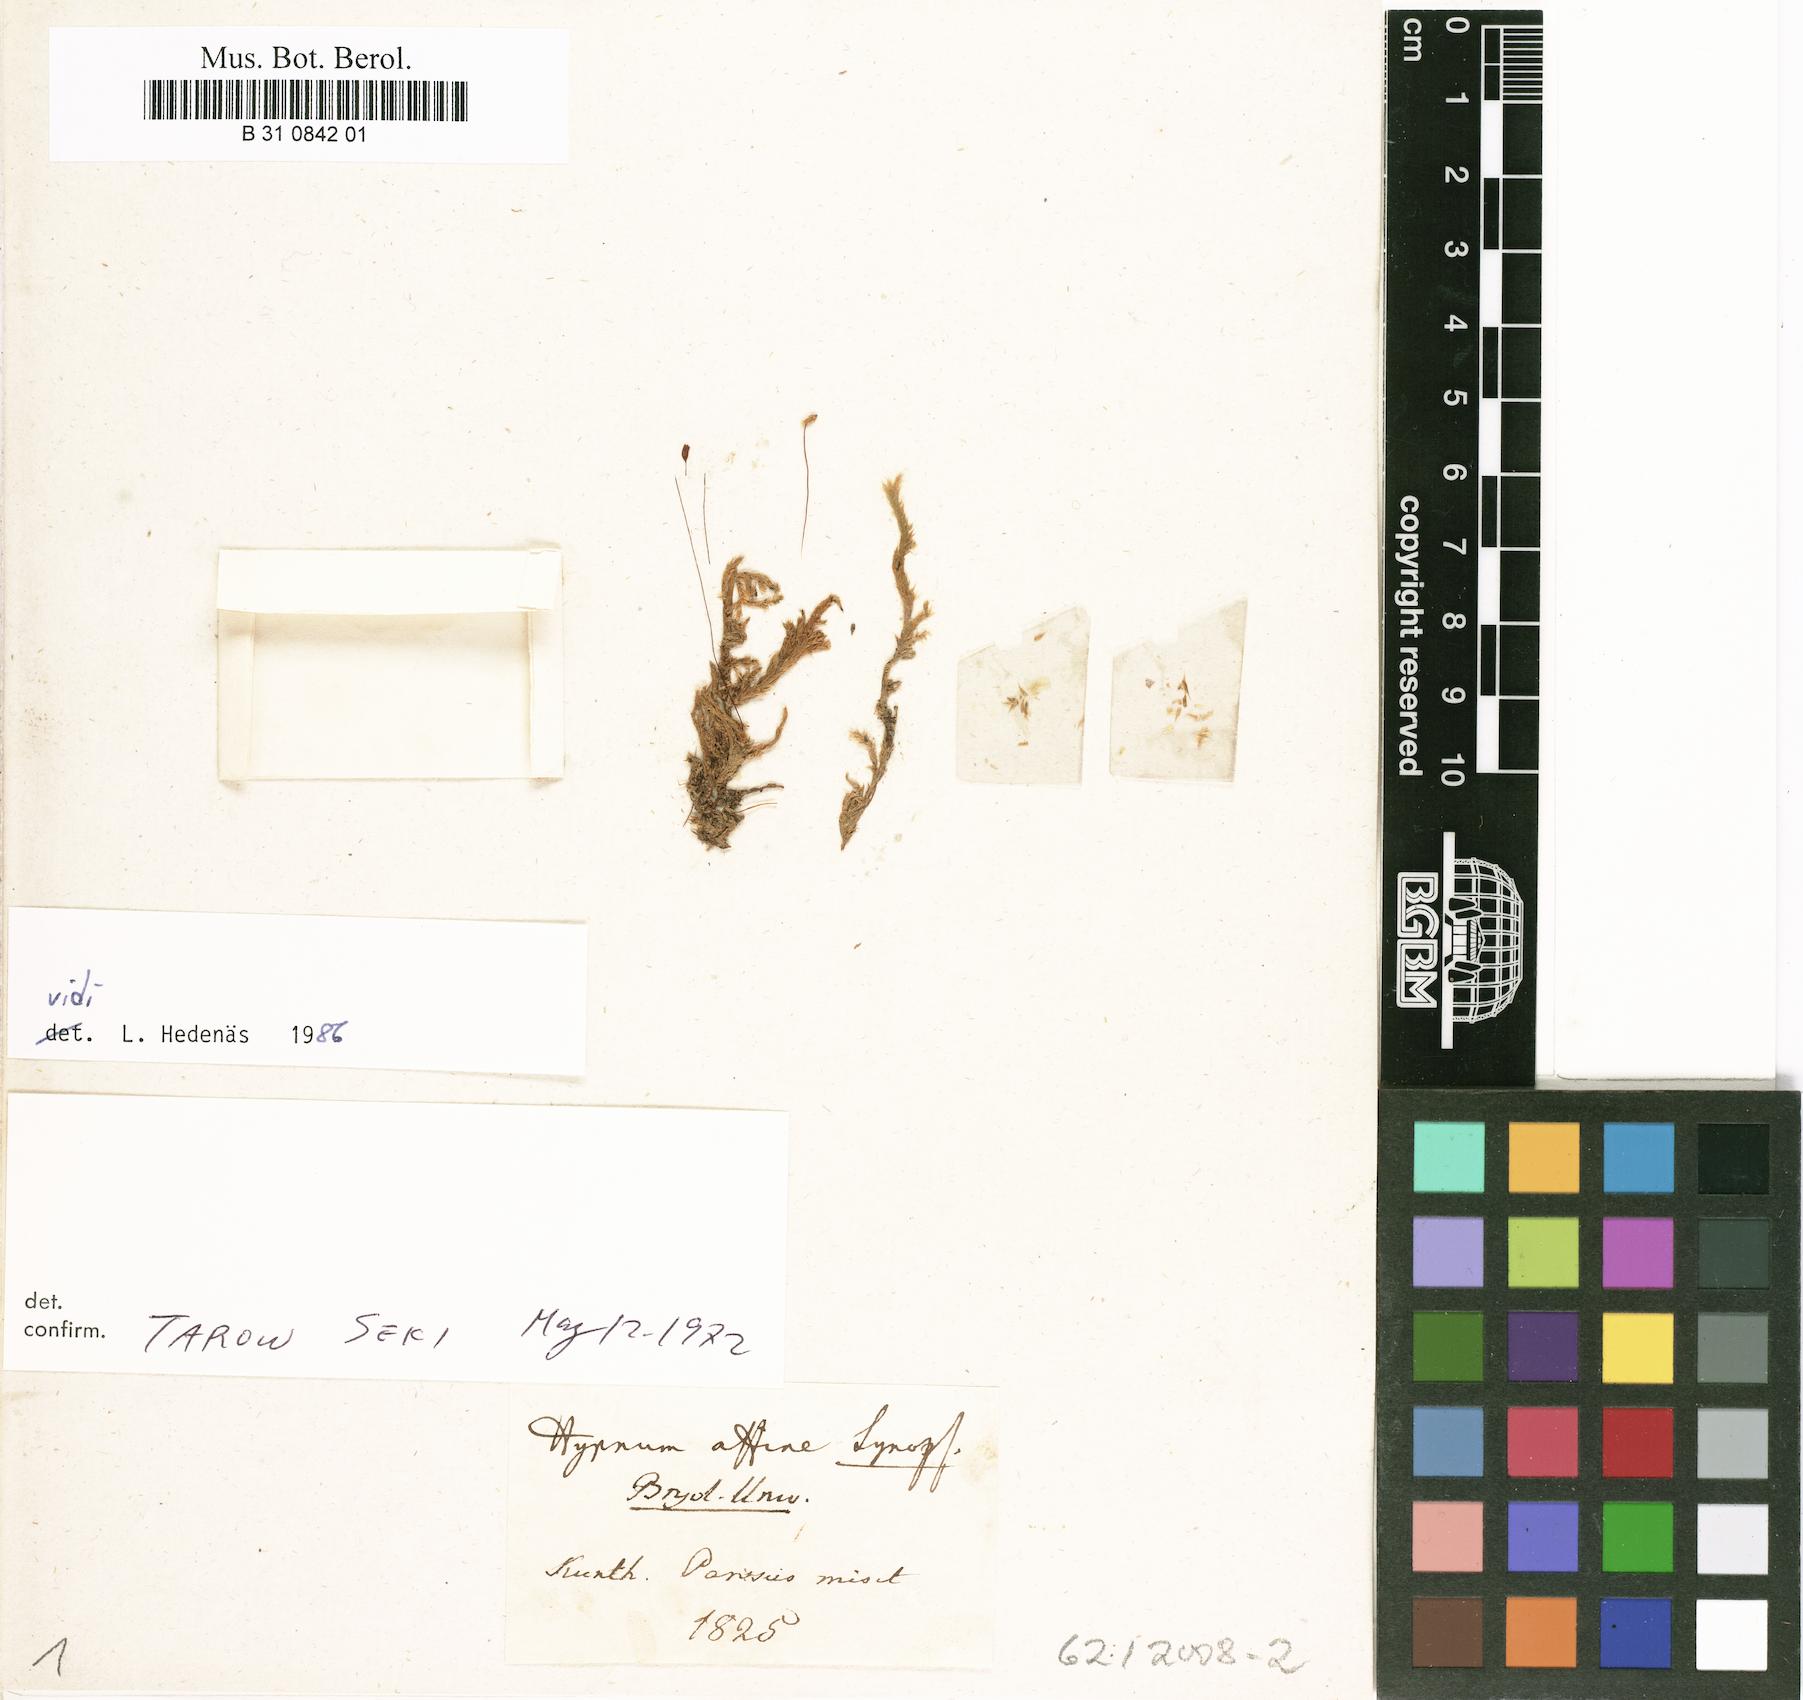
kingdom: Plantae
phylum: Bryophyta
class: Bryopsida
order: Hypnales
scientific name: Hypnales
